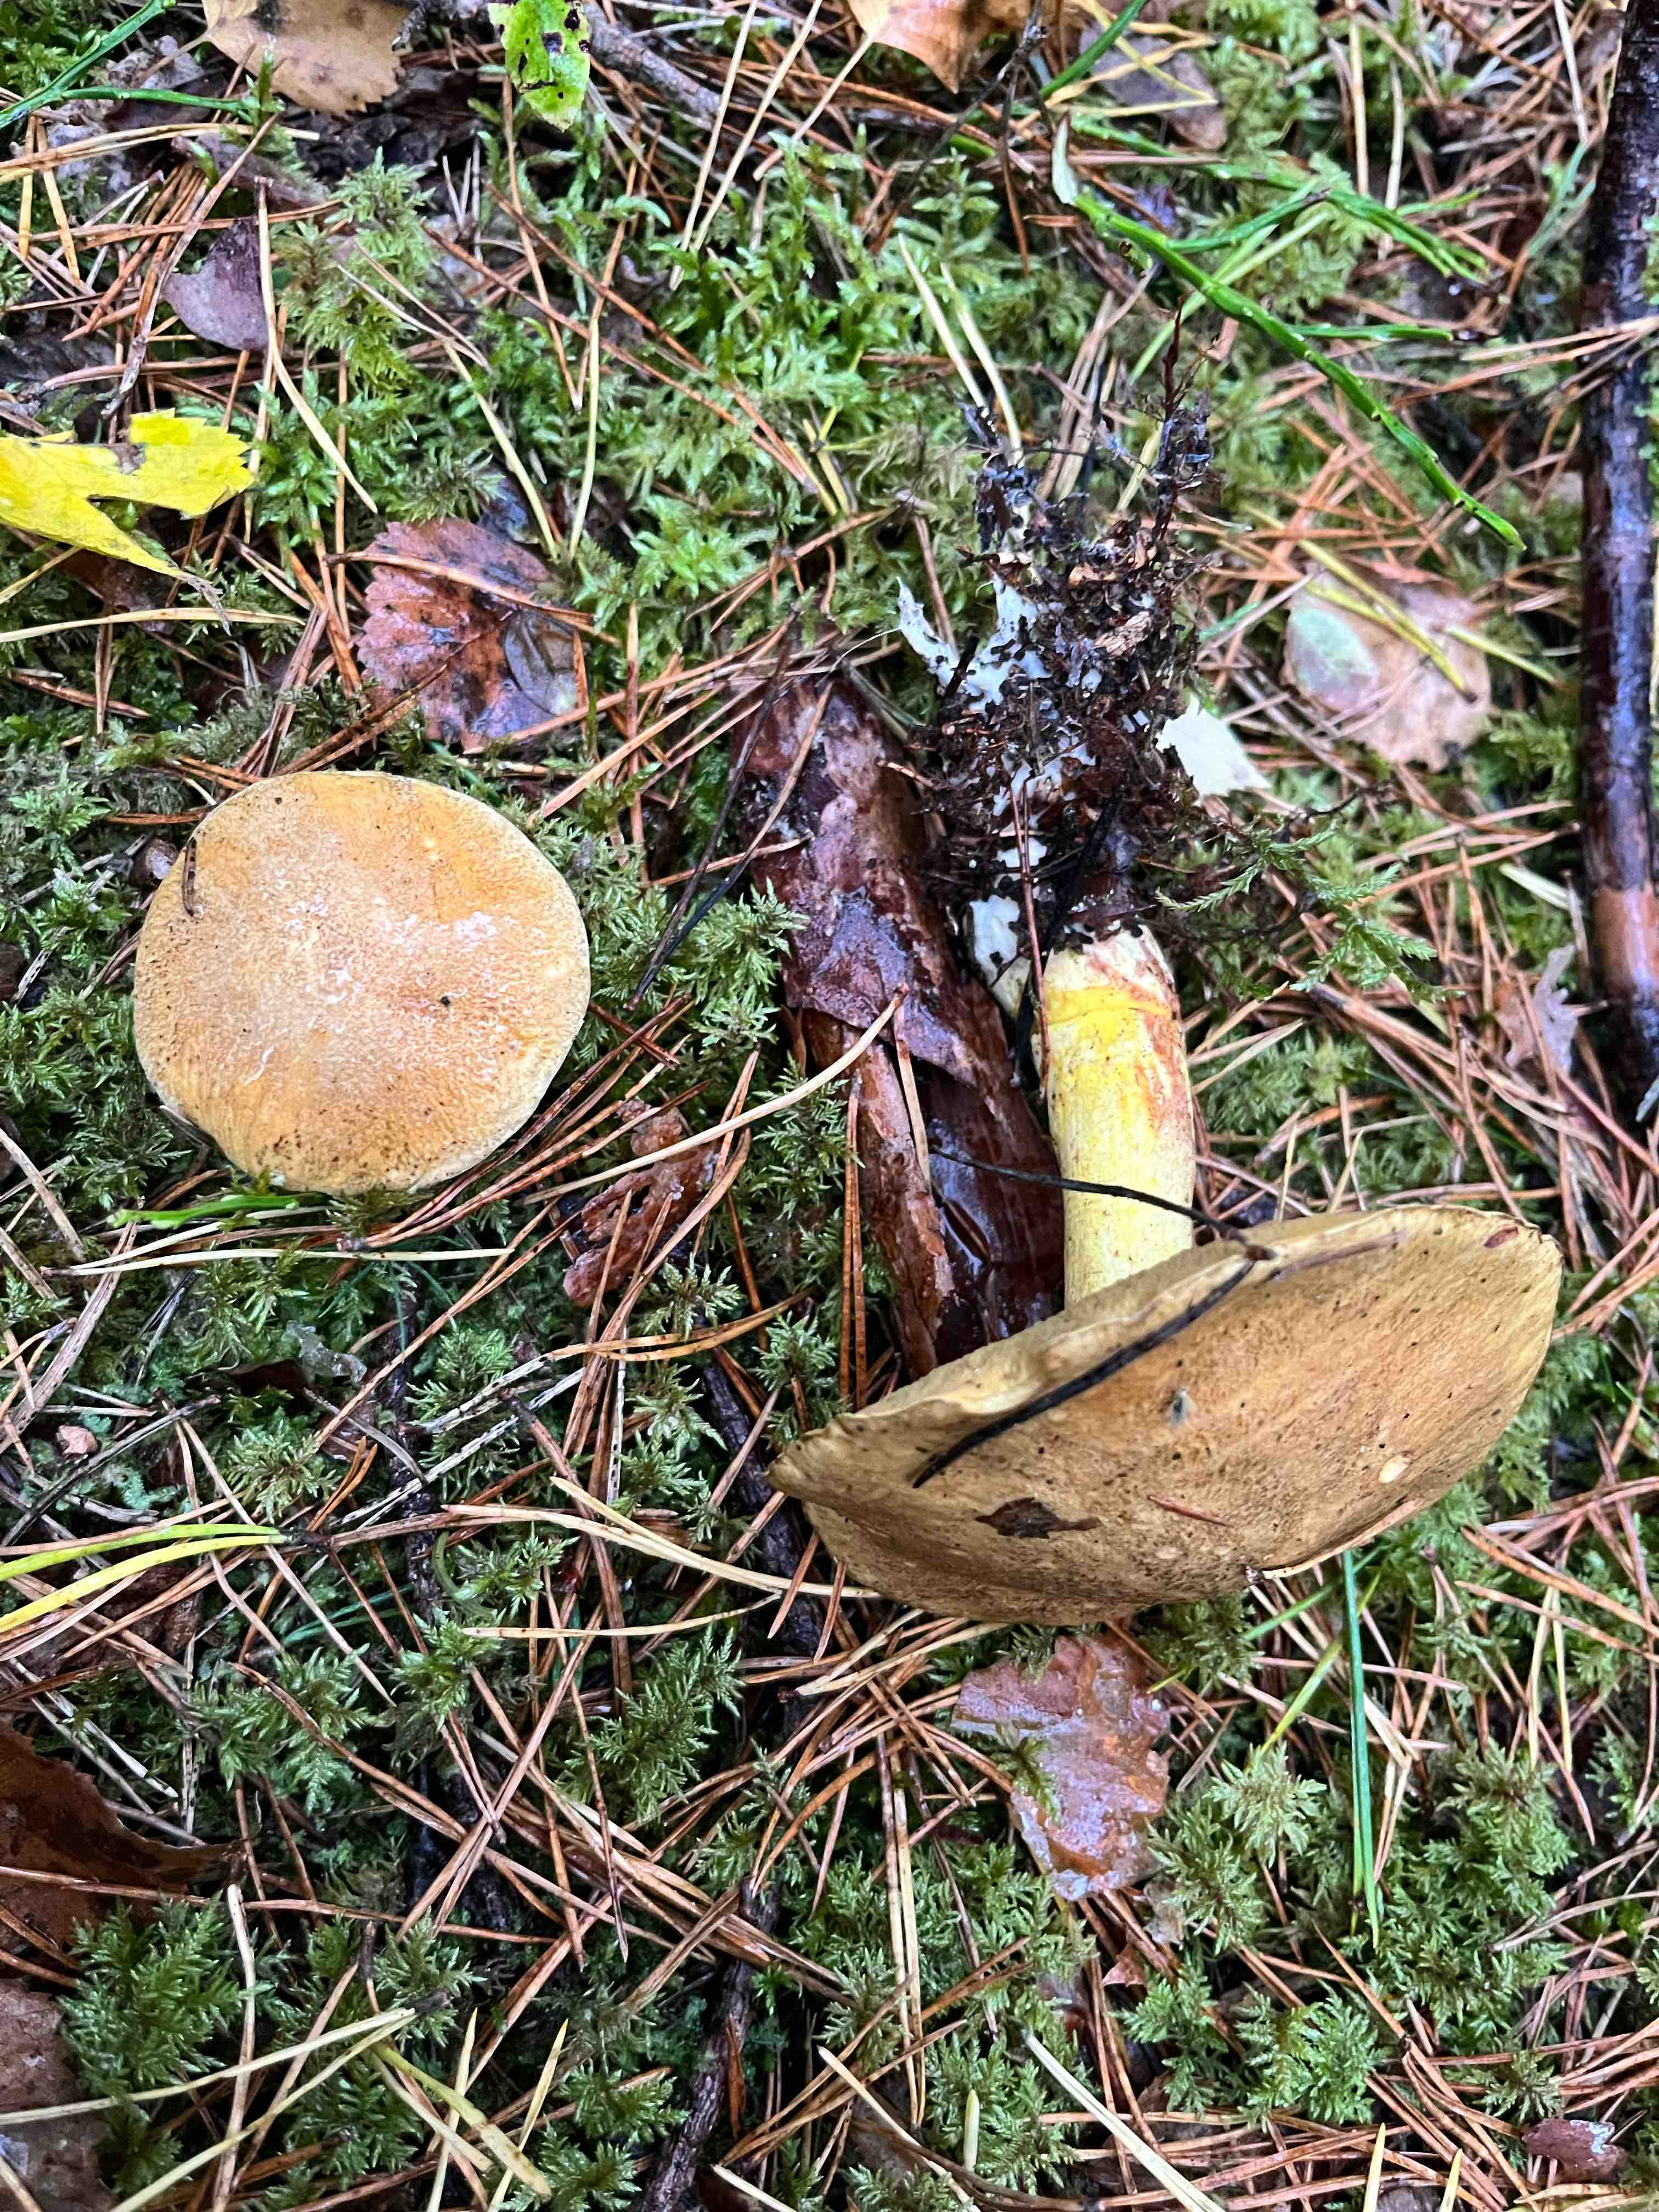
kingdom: Fungi
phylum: Basidiomycota
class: Agaricomycetes
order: Boletales
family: Suillaceae
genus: Suillus
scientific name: Suillus variegatus
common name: broget slimrørhat
